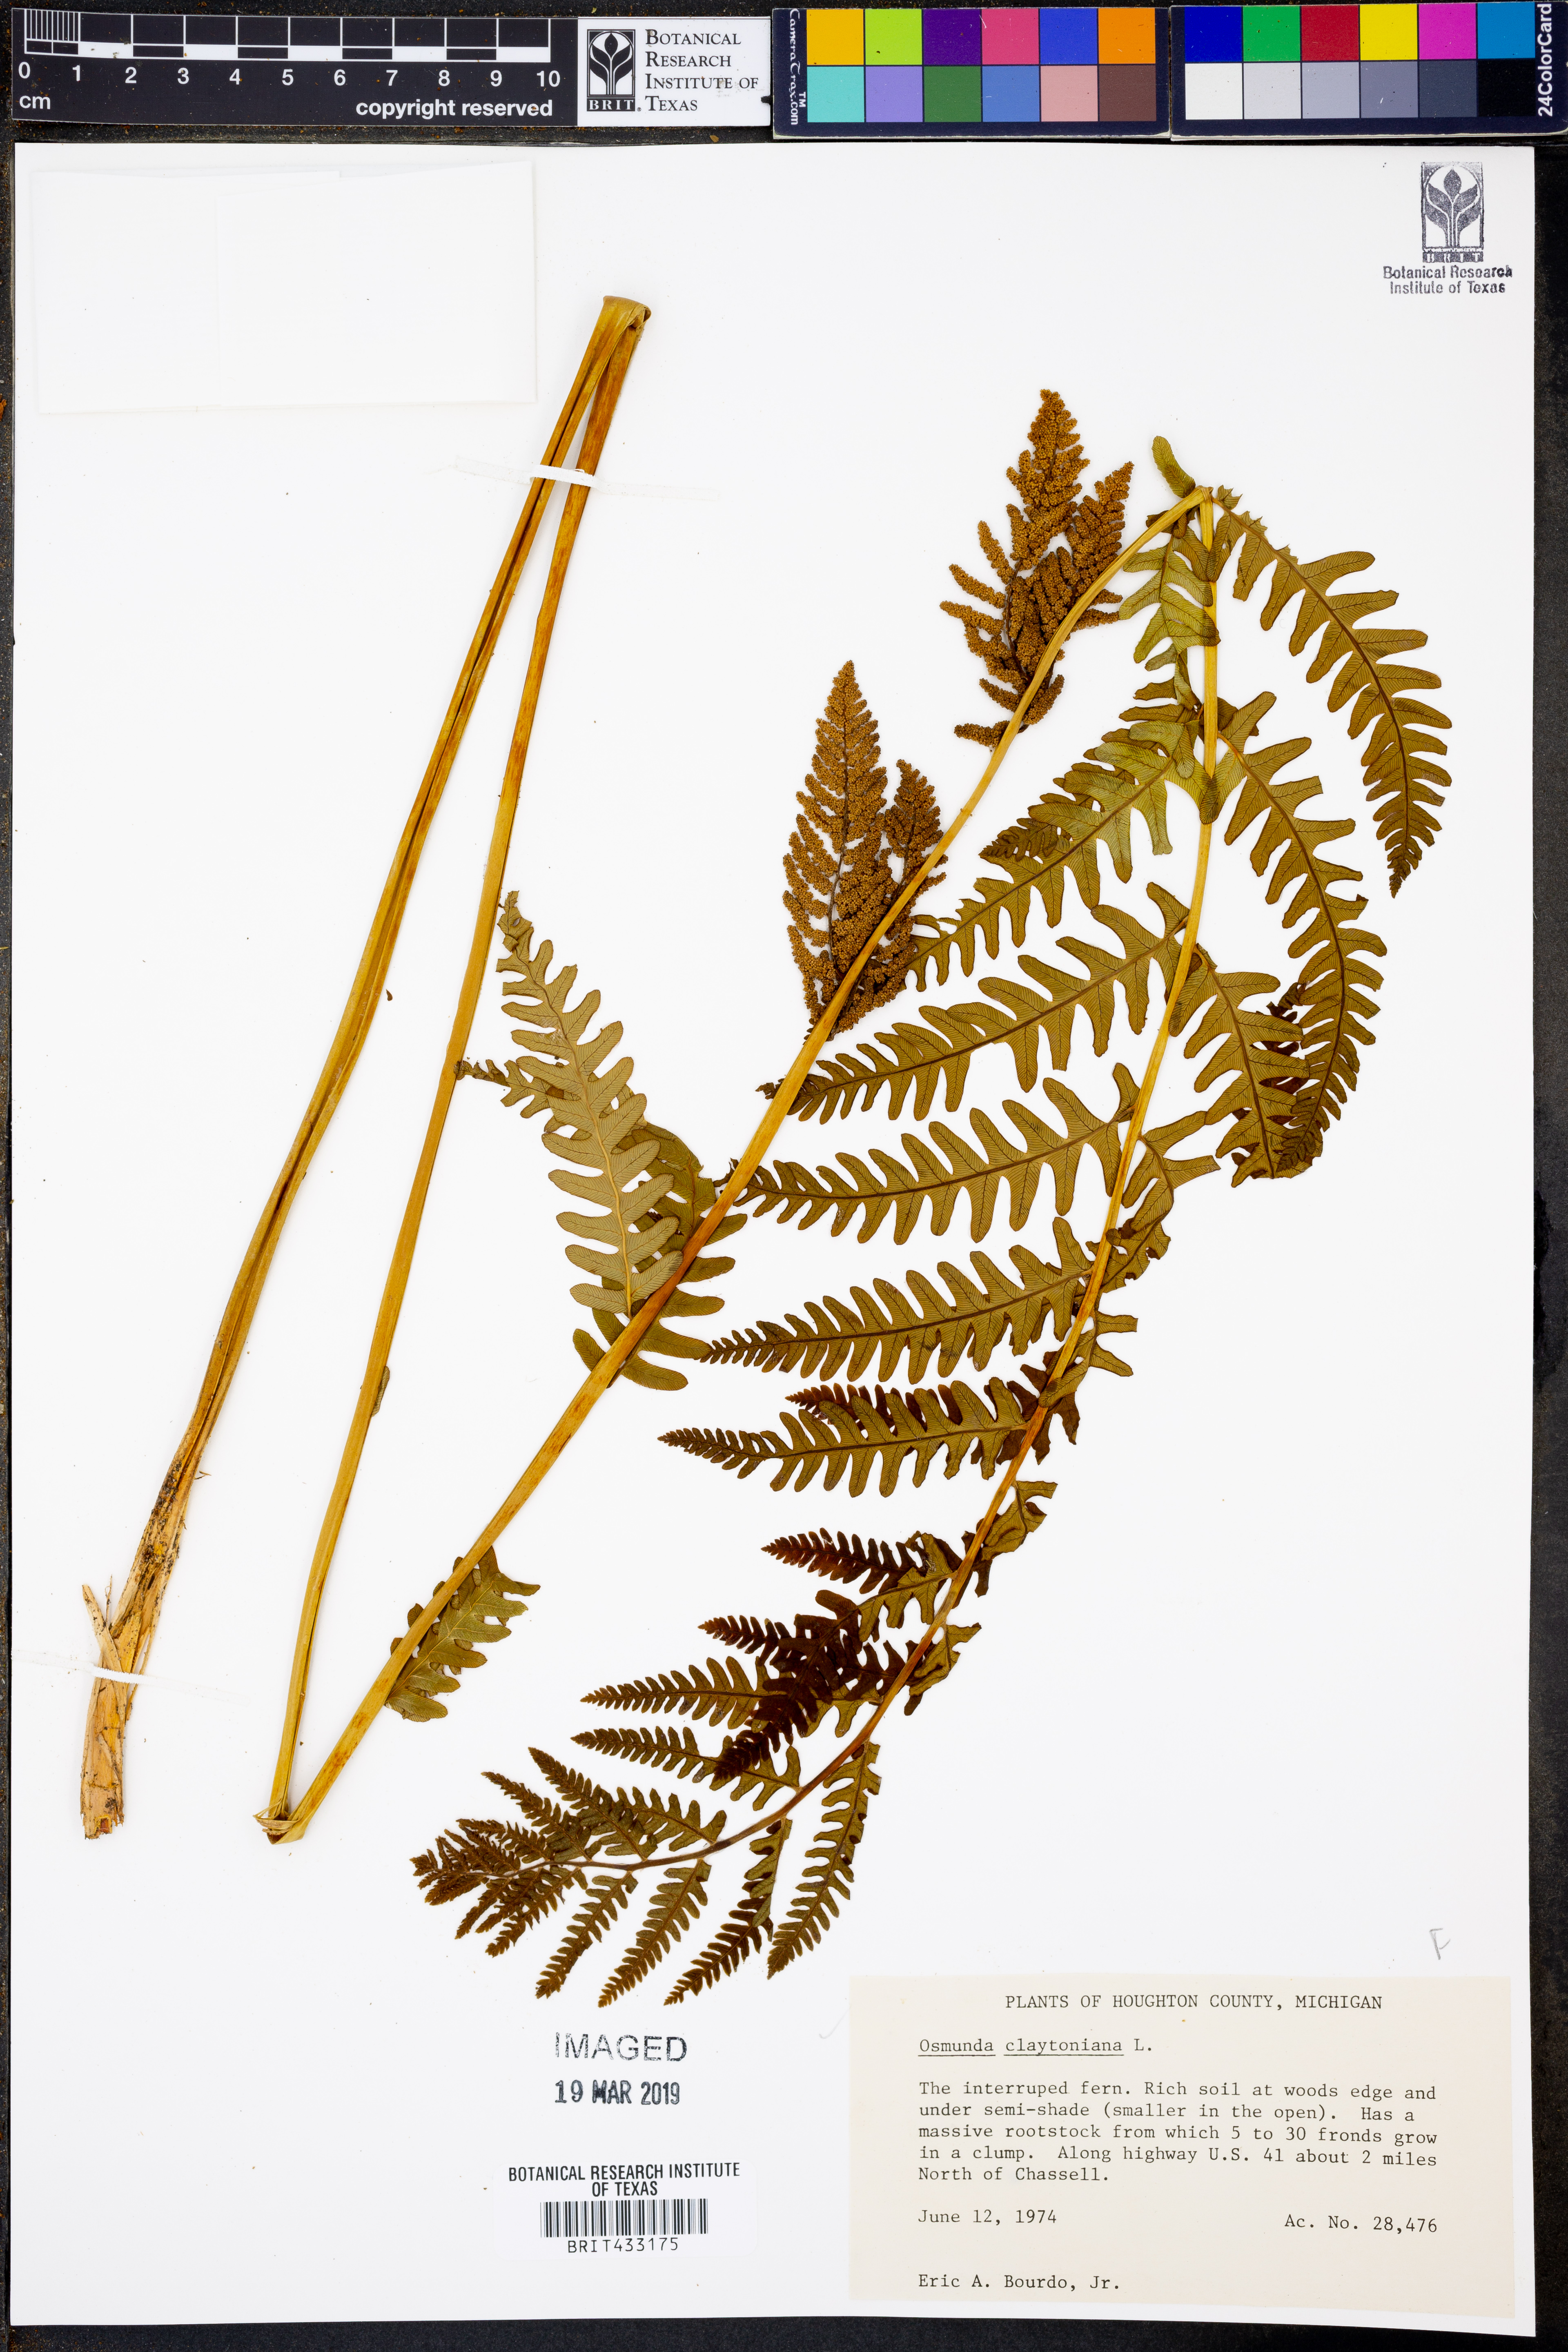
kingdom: Plantae
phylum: Tracheophyta
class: Polypodiopsida
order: Osmundales
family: Osmundaceae
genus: Claytosmunda
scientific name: Claytosmunda claytoniana
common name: Clayton's fern
